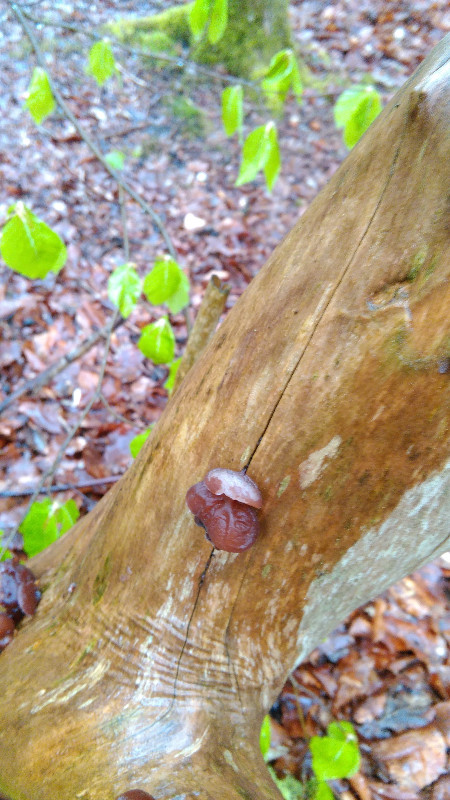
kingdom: Fungi
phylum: Basidiomycota
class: Agaricomycetes
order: Auriculariales
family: Auriculariaceae
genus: Auricularia
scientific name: Auricularia auricula-judae
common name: almindelig judasøre
